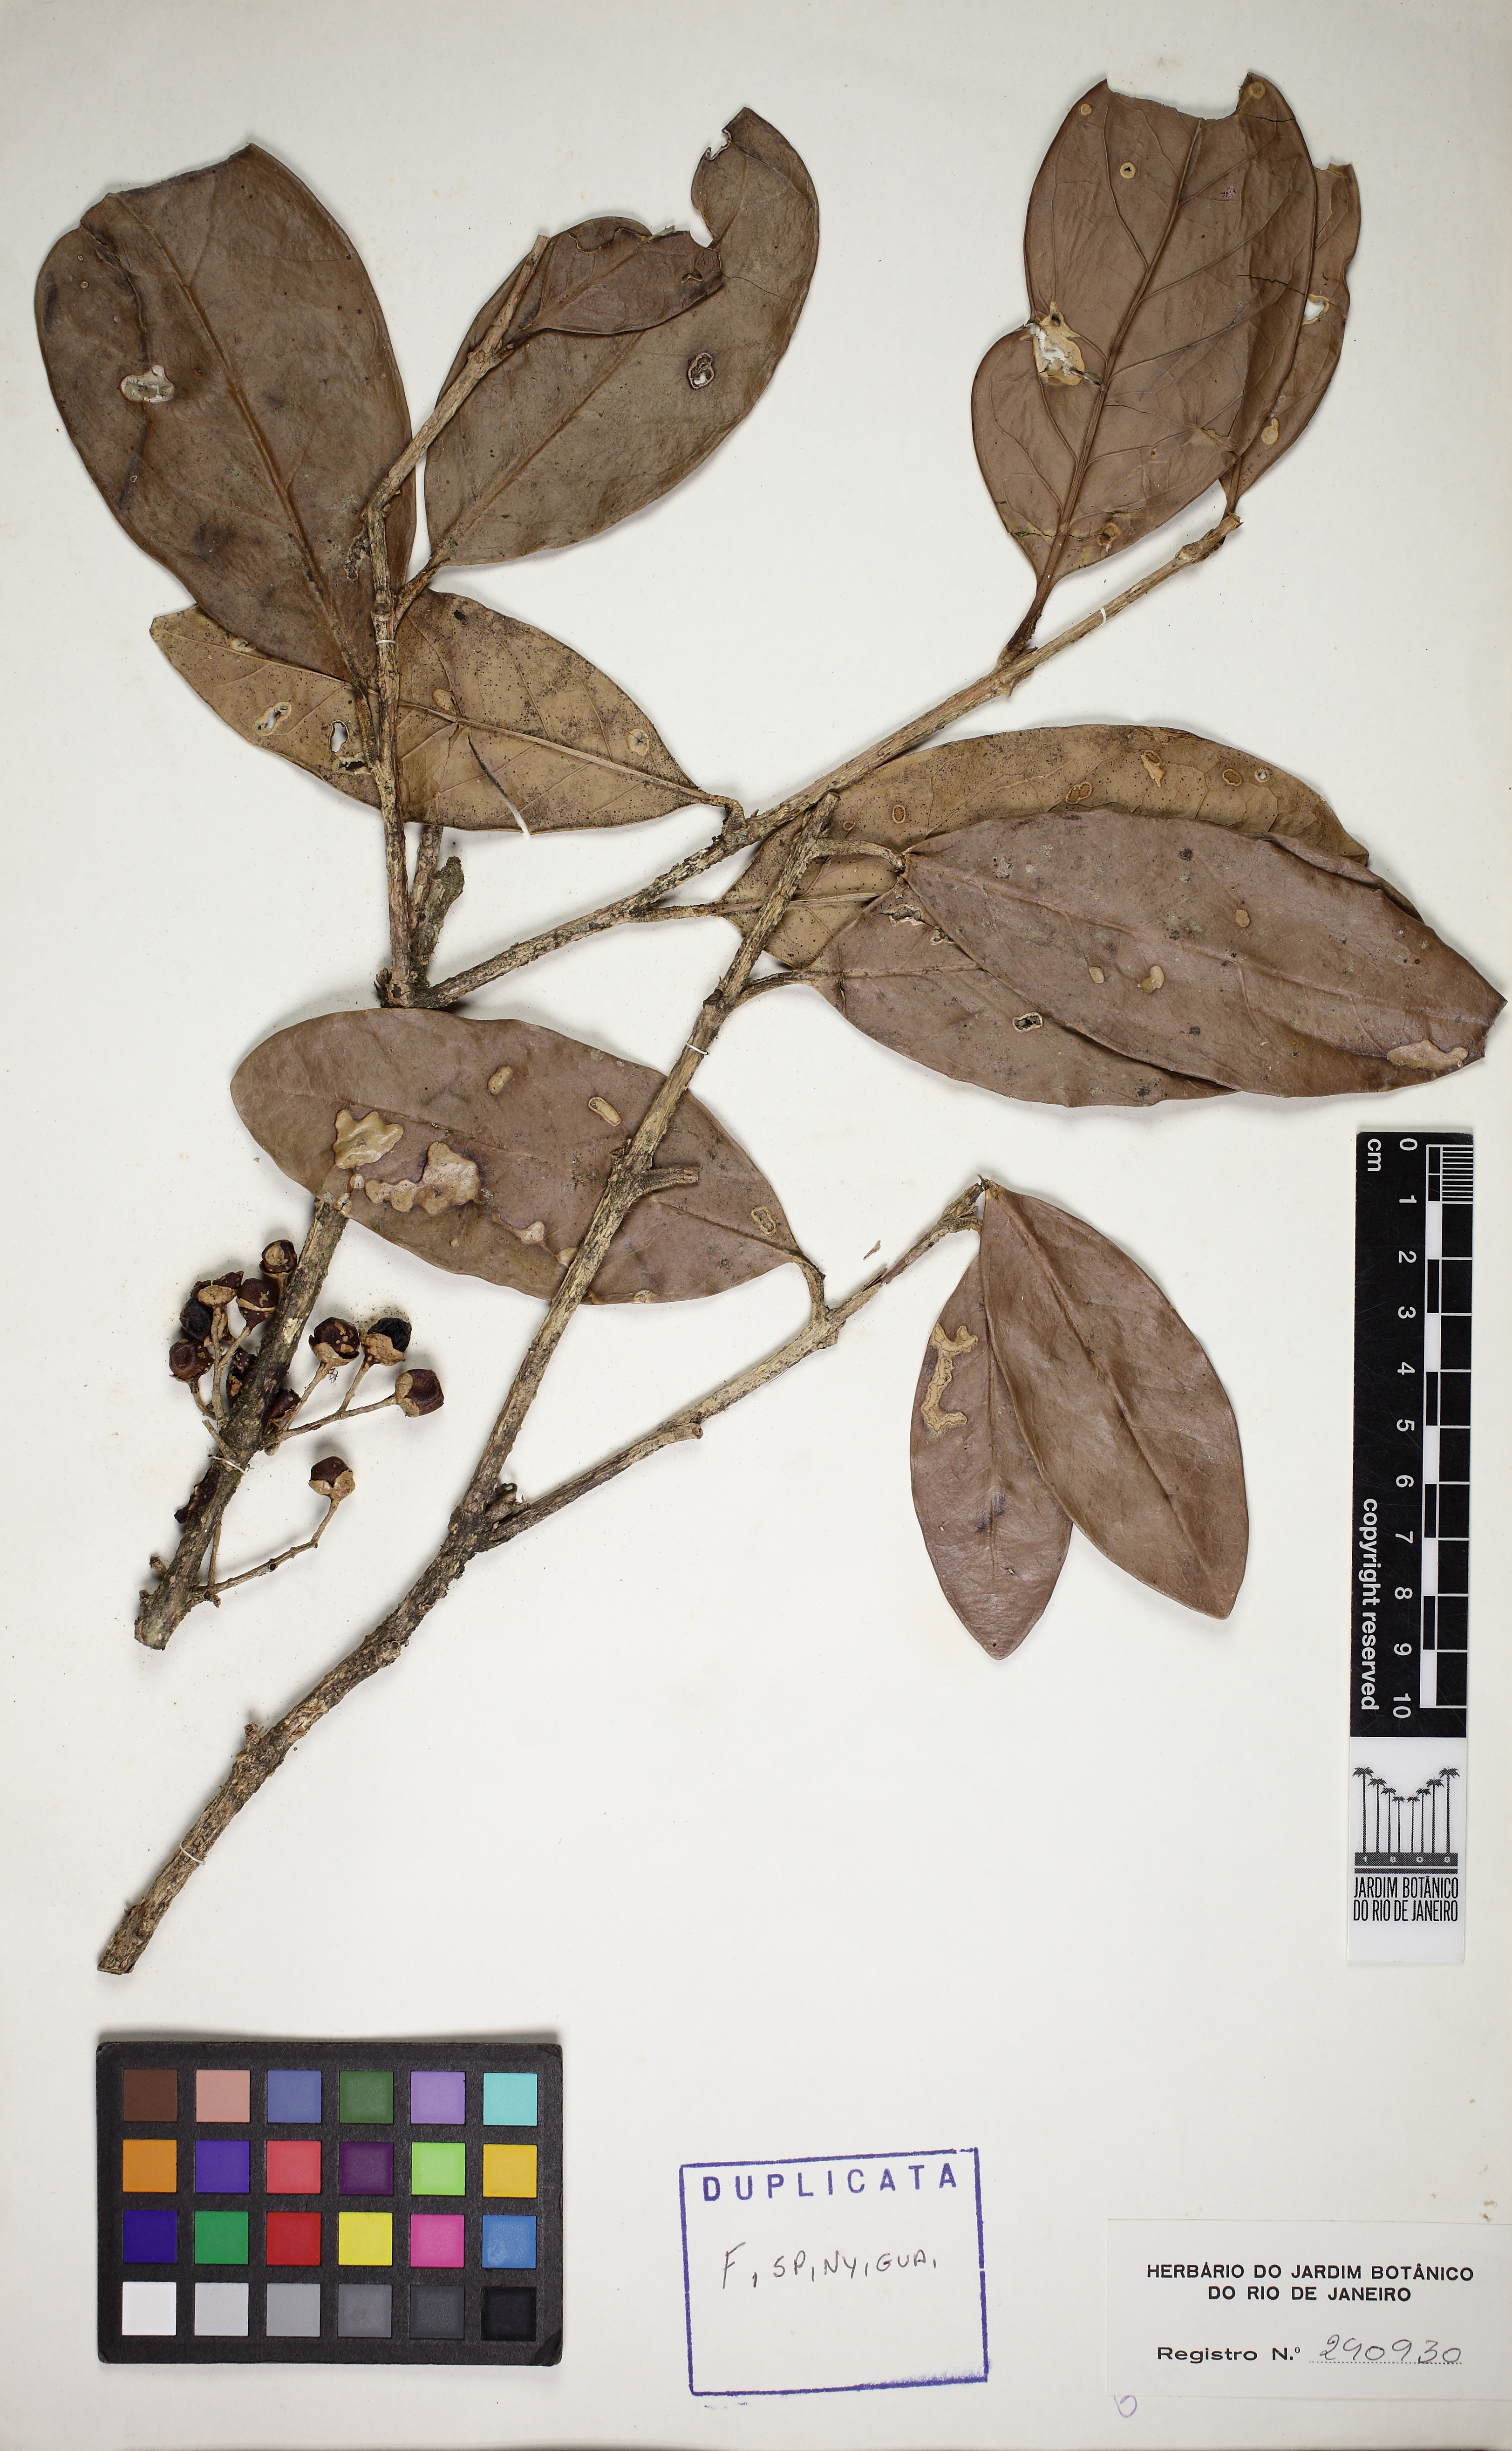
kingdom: Plantae
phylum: Tracheophyta
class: Magnoliopsida
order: Lamiales
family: Schlegeliaceae
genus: Schlegelia
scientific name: Schlegelia parviflora
